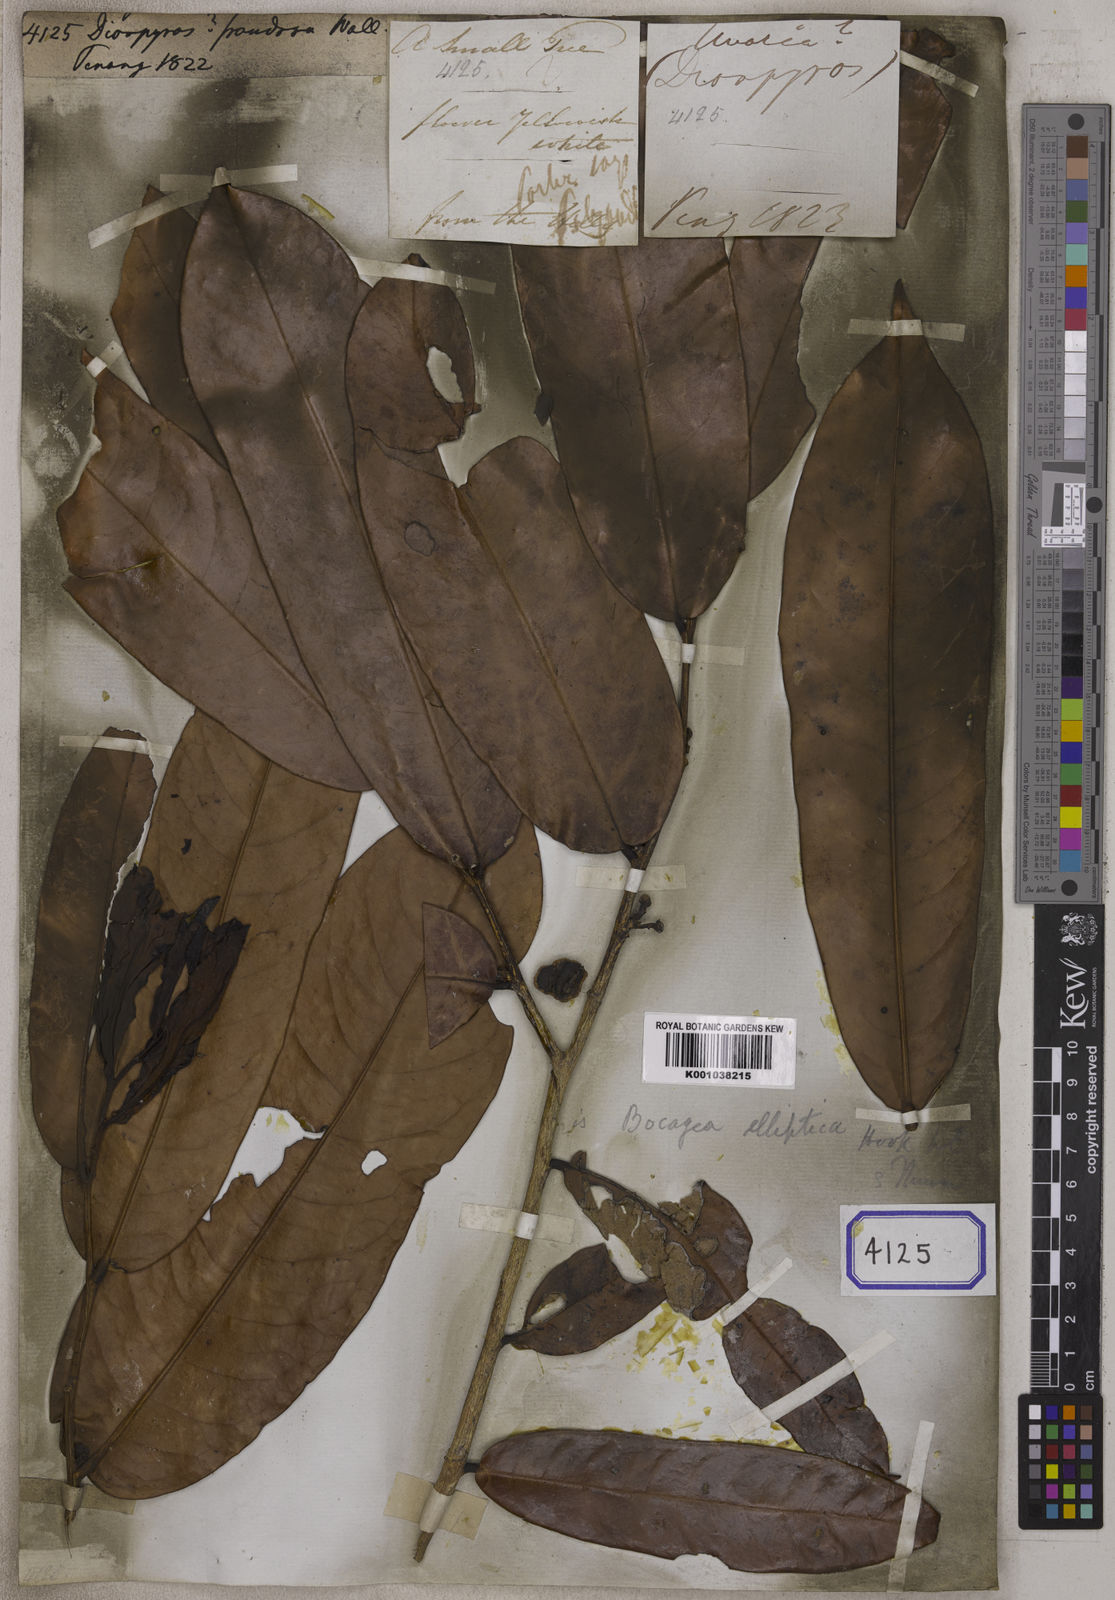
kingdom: Plantae
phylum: Tracheophyta
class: Magnoliopsida
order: Ericales
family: Ebenaceae
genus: Diospyros
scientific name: Diospyros
